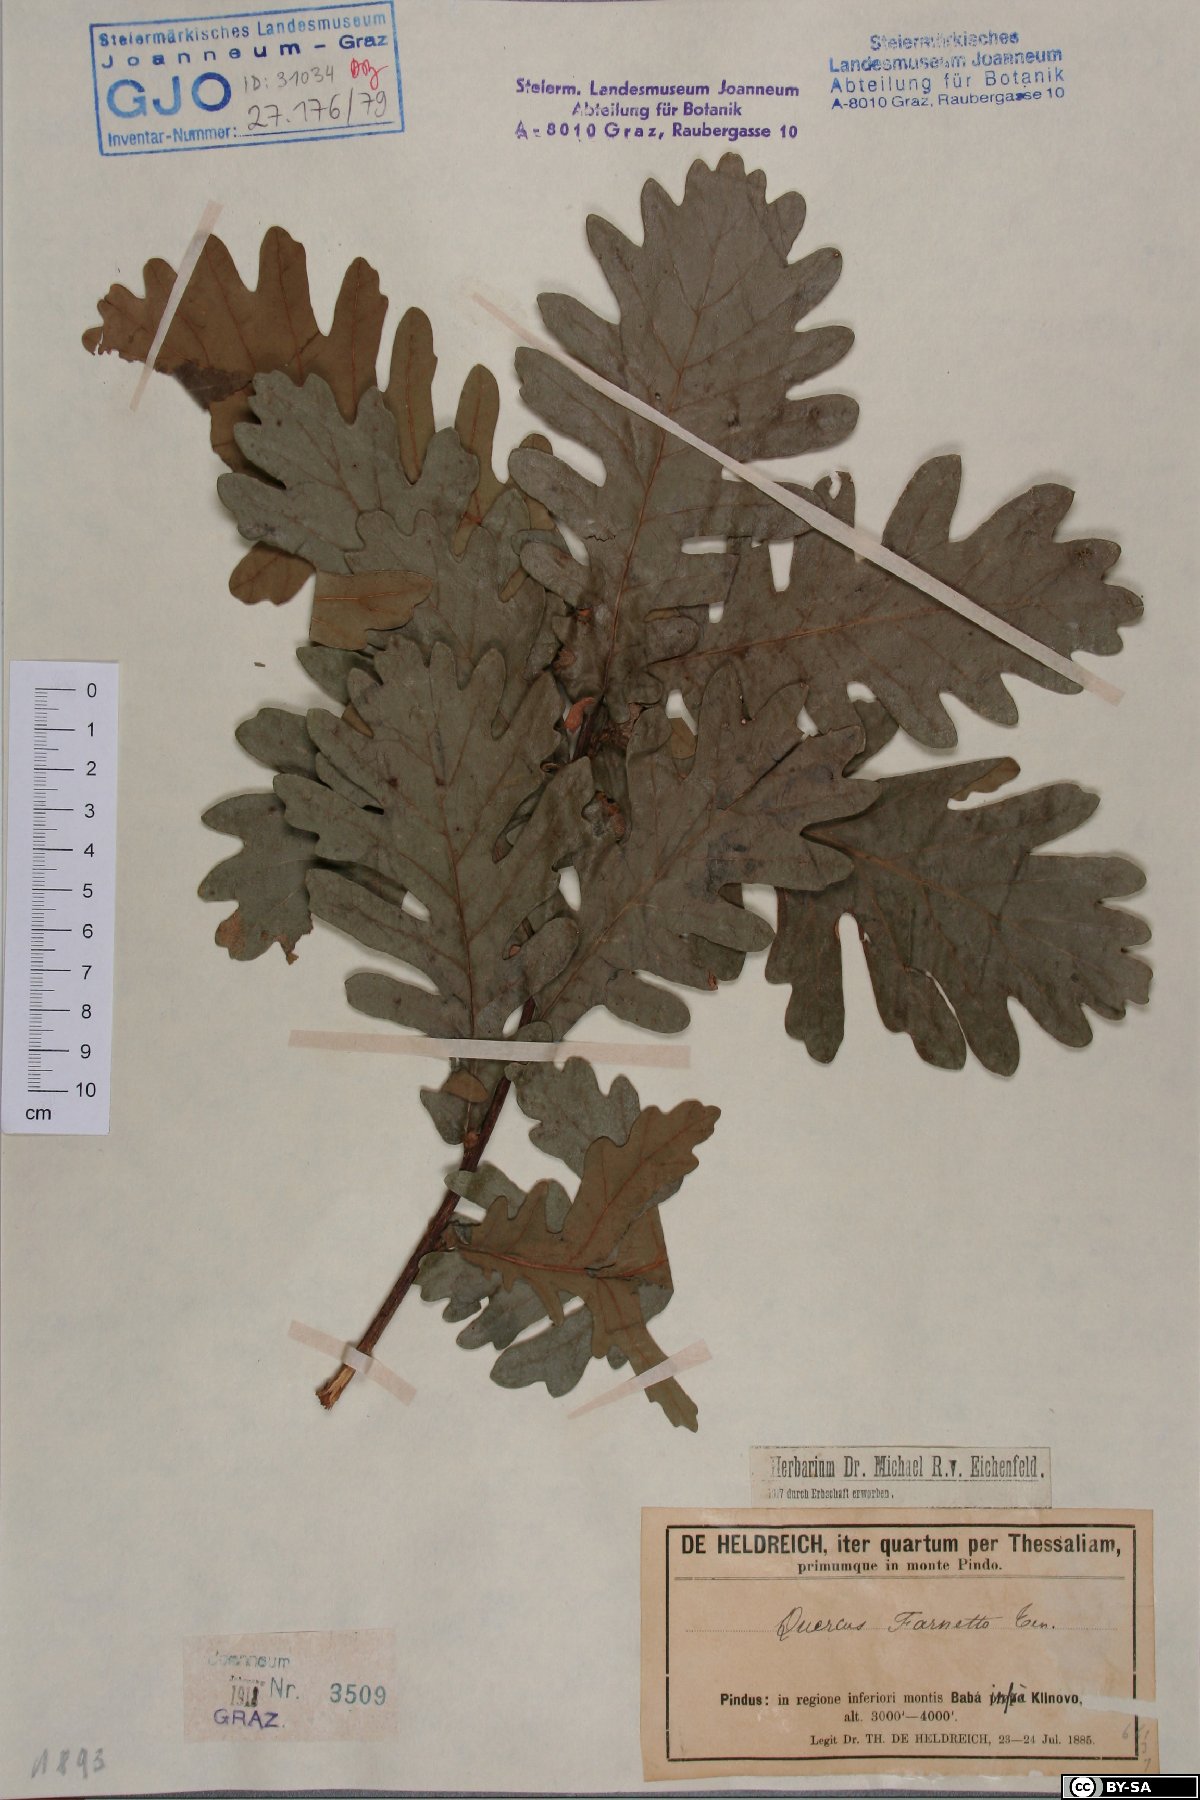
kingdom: Plantae
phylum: Tracheophyta
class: Magnoliopsida
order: Fagales
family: Fagaceae
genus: Quercus
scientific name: Quercus conferta
